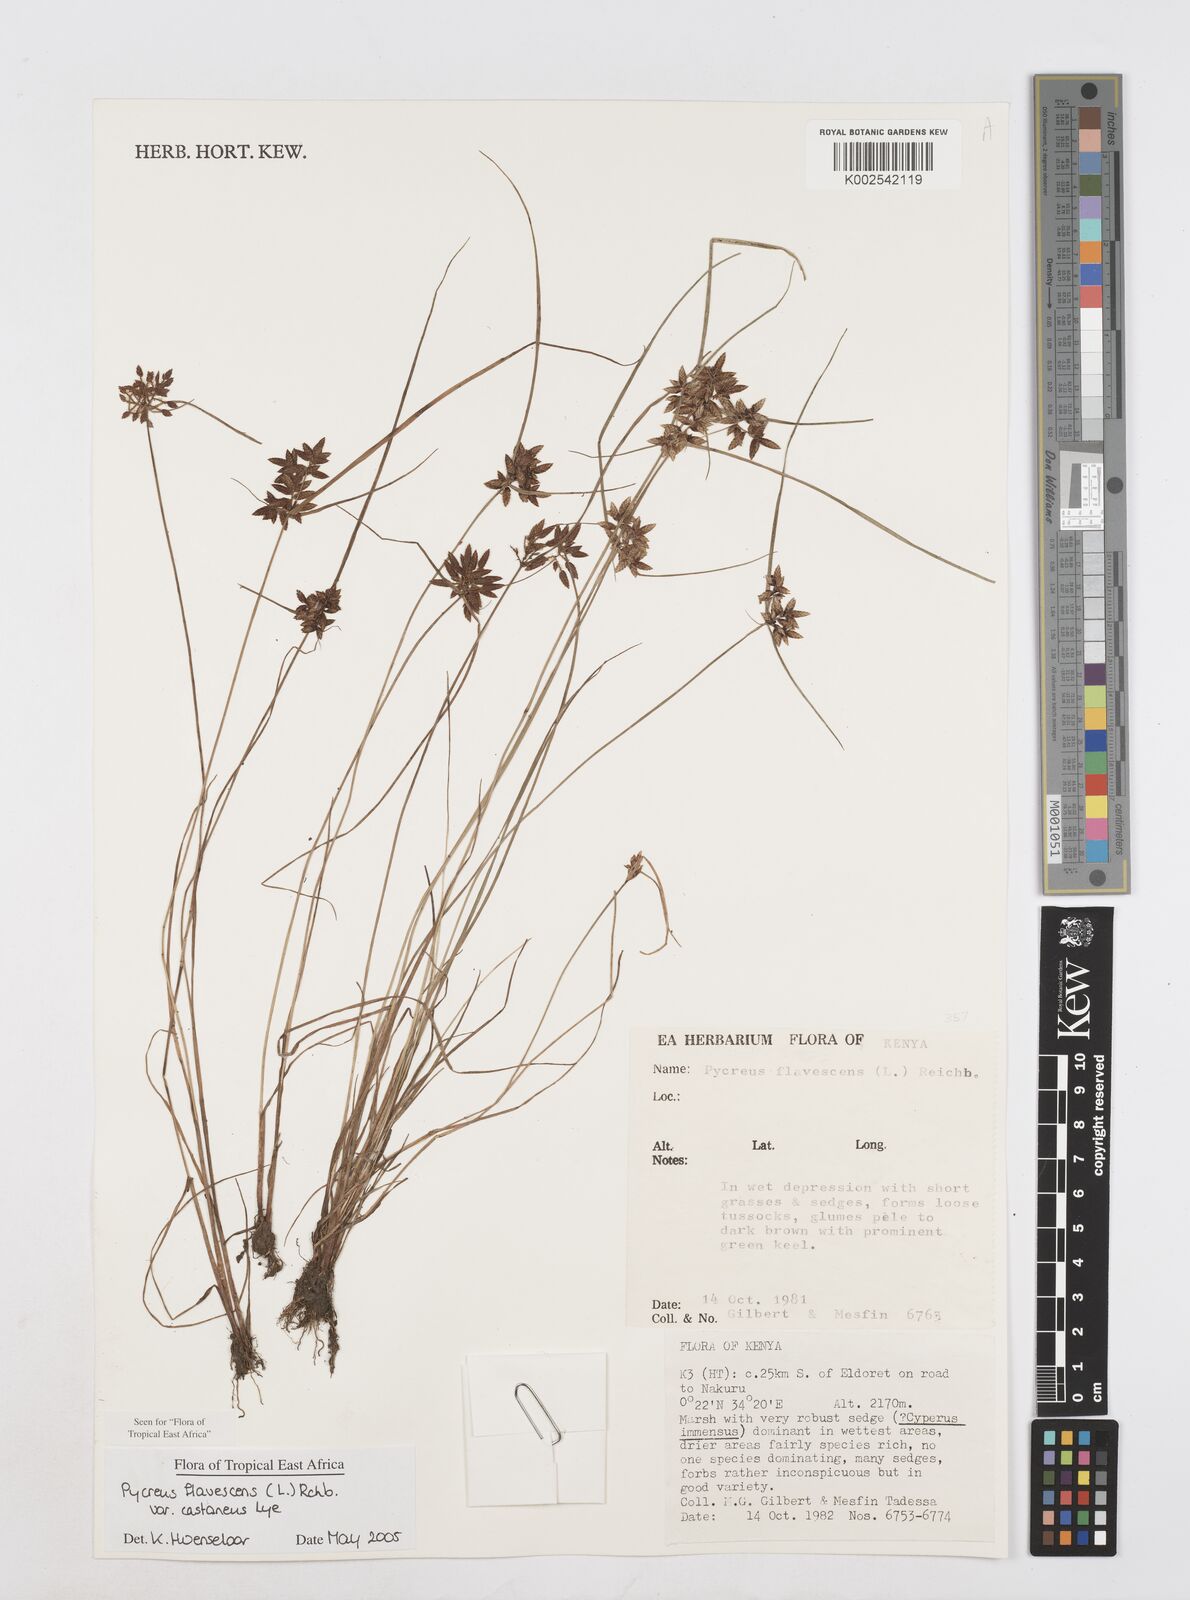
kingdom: Plantae
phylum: Tracheophyta
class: Liliopsida
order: Poales
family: Cyperaceae
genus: Cyperus
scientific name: Cyperus flavescens
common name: Yellow galingale
